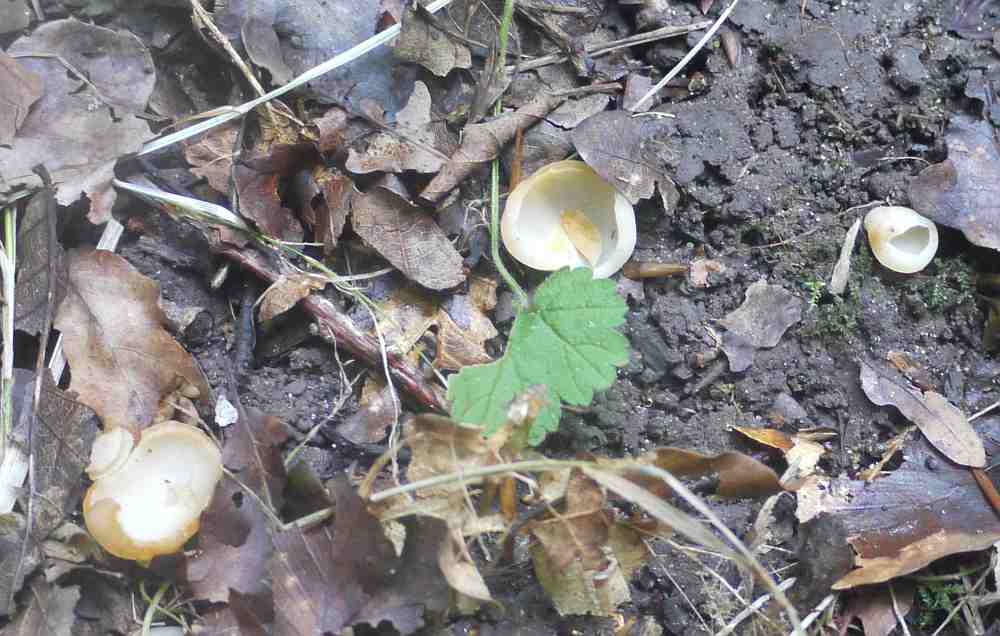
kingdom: Fungi
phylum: Ascomycota
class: Pezizomycetes
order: Pezizales
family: Pezizaceae
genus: Paragalactinia
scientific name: Paragalactinia succosa
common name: gulmælket bægersvamp
